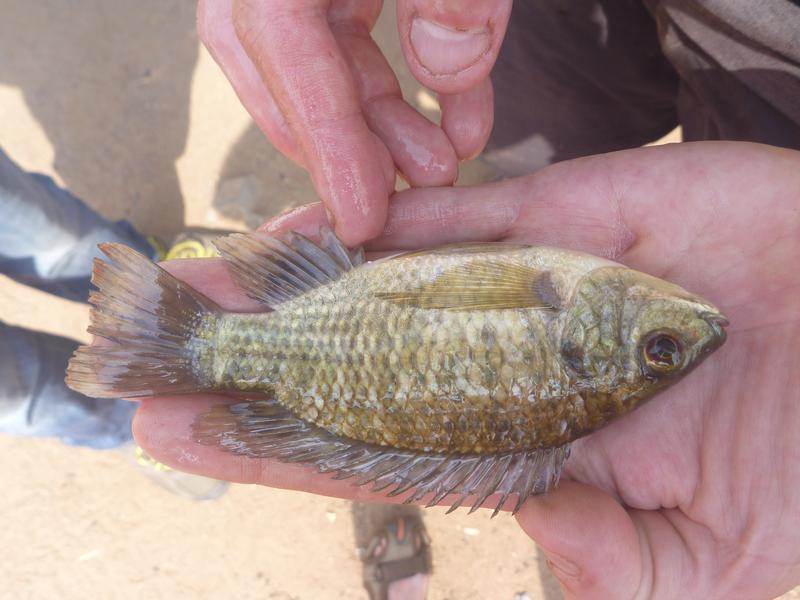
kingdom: Animalia
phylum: Chordata
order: Perciformes
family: Cichlidae
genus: Oreochromis
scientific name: Oreochromis leucostictus
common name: Blue spotted tilapia
